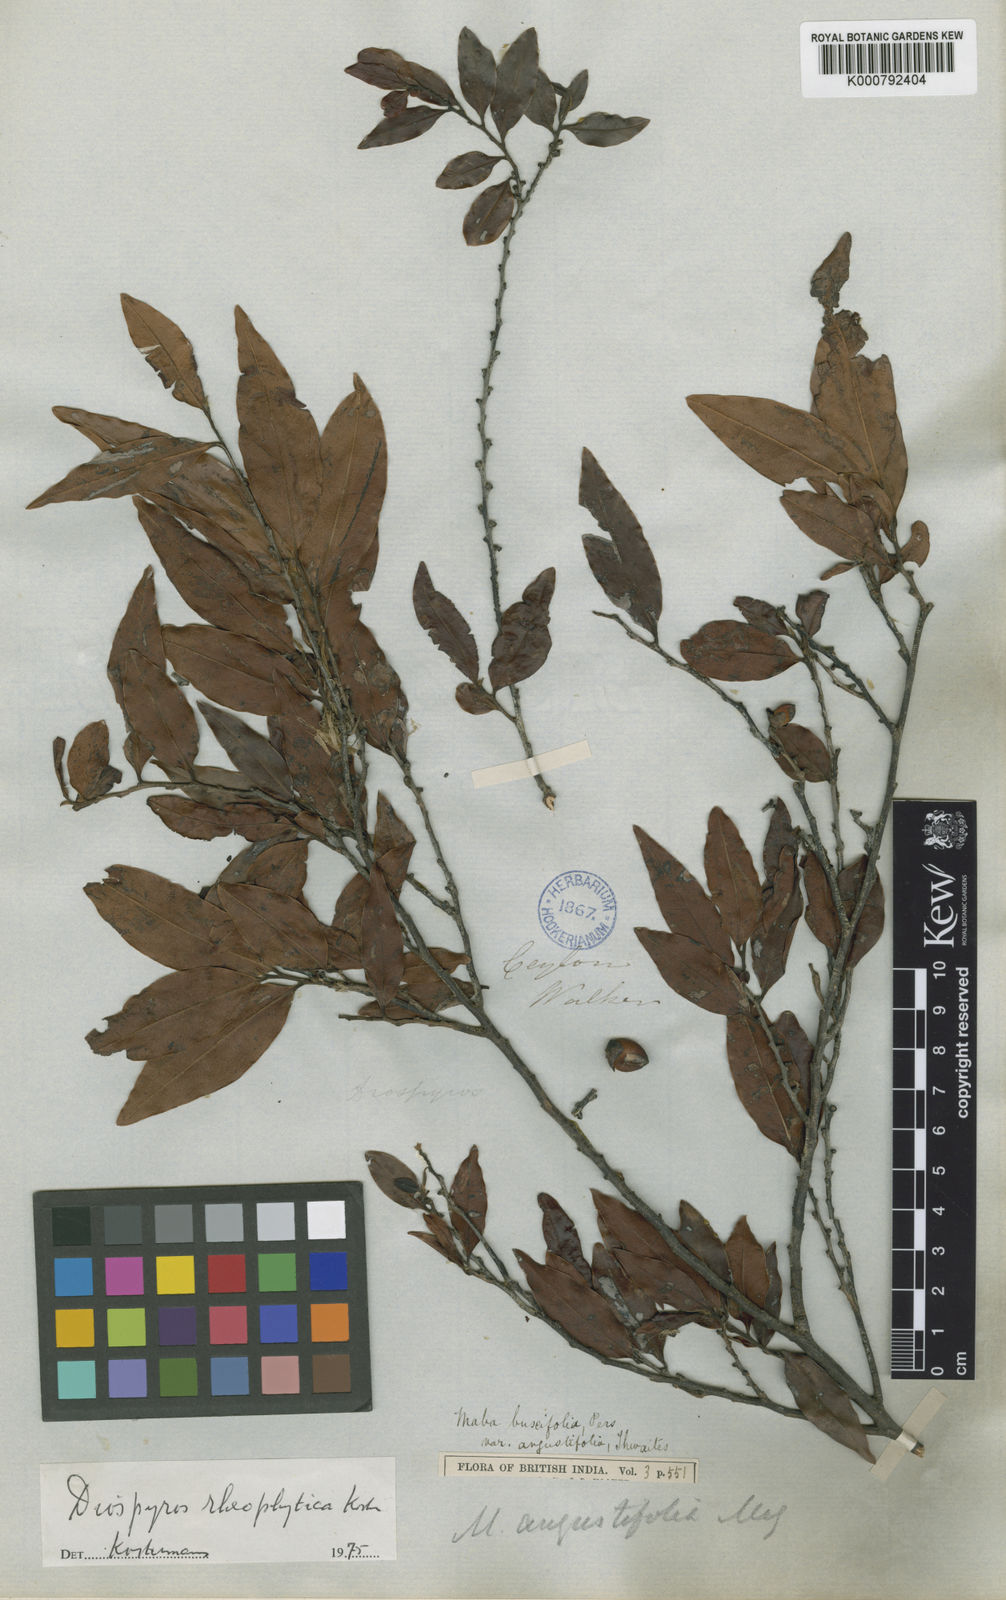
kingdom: Plantae
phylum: Tracheophyta
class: Magnoliopsida
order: Ericales
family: Ebenaceae
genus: Diospyros
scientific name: Diospyros buxifolia
